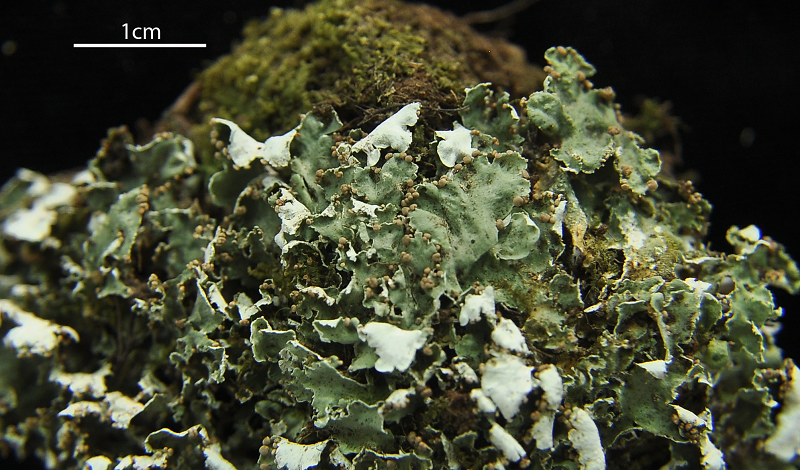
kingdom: Fungi
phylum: Ascomycota
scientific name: Ascomycota
